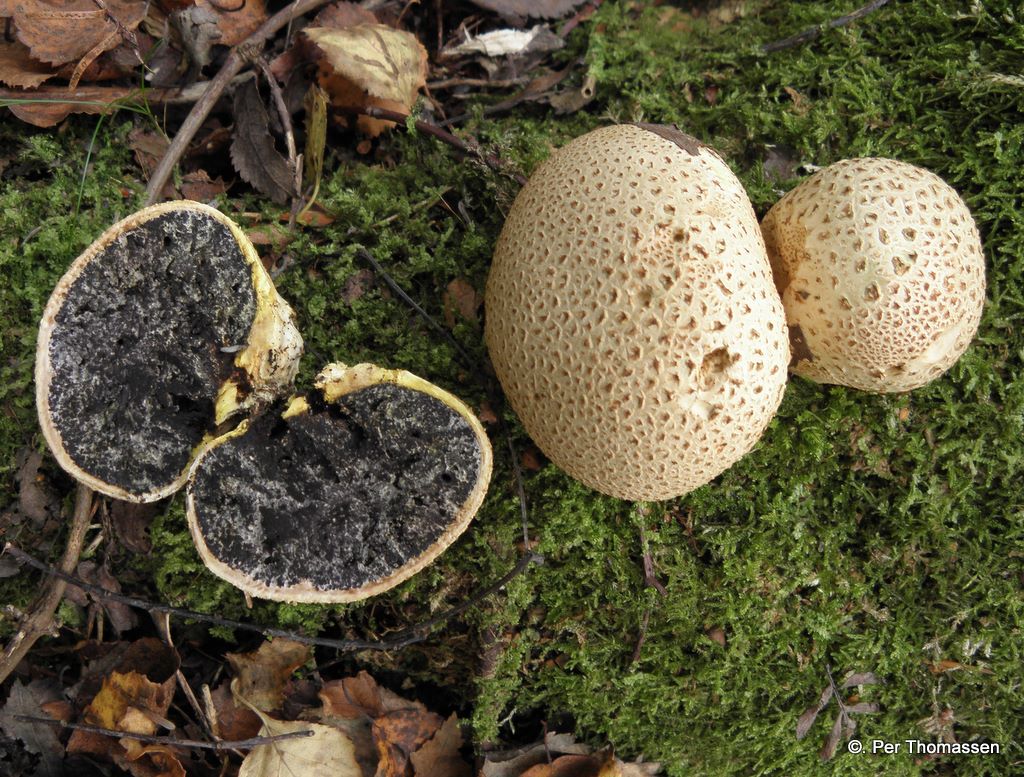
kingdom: Fungi
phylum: Basidiomycota
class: Agaricomycetes
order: Boletales
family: Sclerodermataceae
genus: Scleroderma
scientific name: Scleroderma citrinum
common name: almindelig bruskbold
